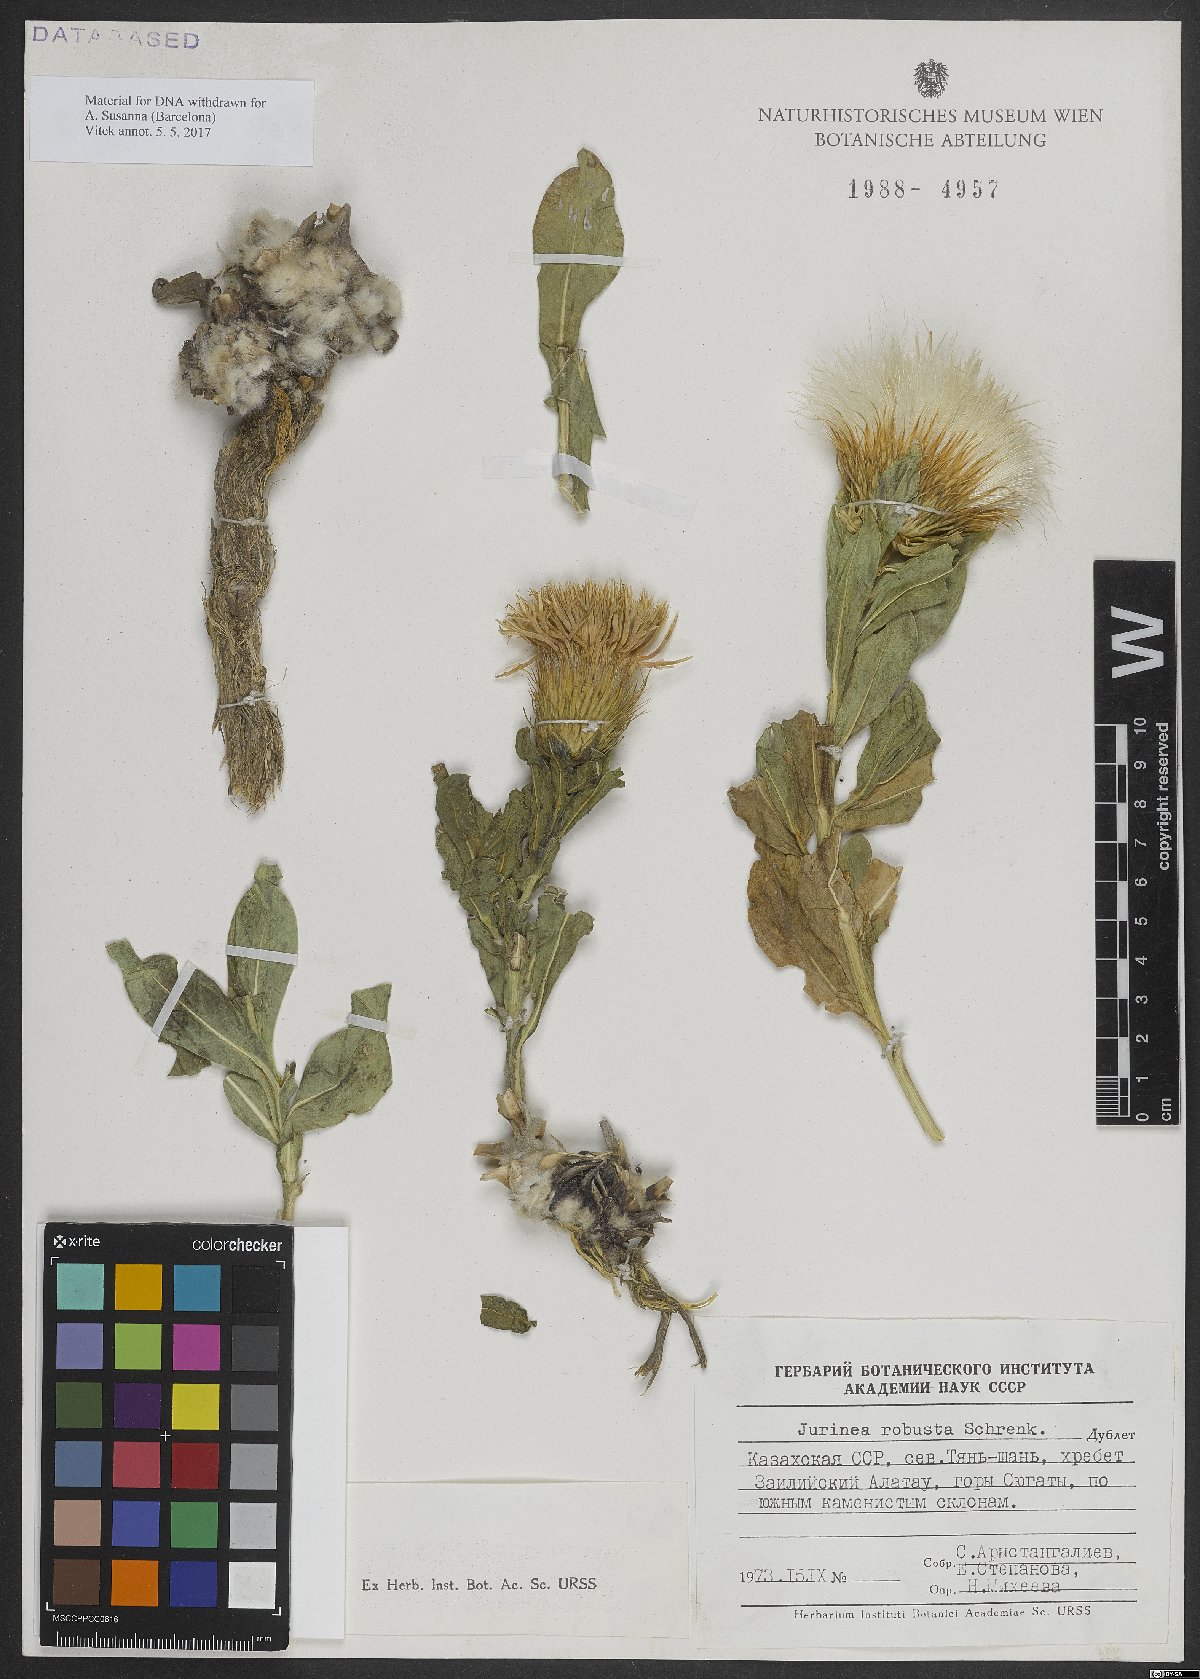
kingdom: Plantae
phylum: Tracheophyta
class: Magnoliopsida
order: Asterales
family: Asteraceae
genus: Jurinea
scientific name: Jurinea robusta
